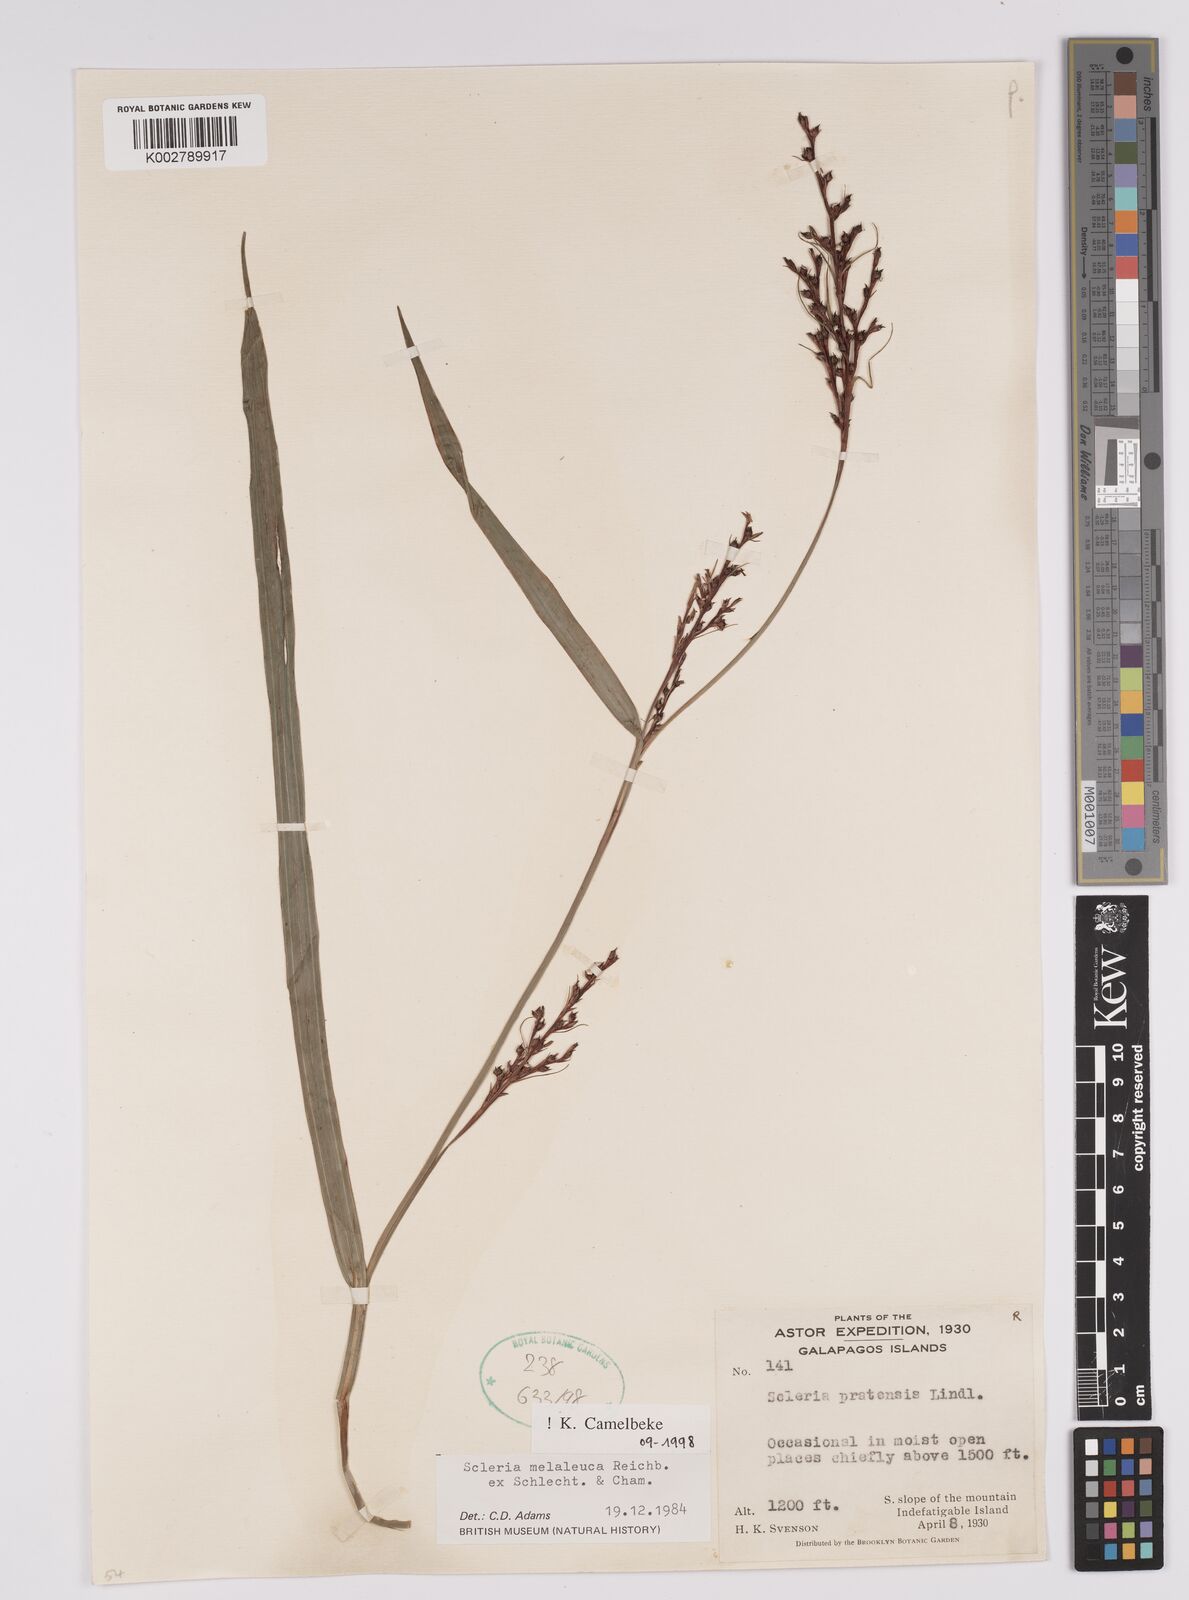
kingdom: Plantae
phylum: Tracheophyta
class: Liliopsida
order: Poales
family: Cyperaceae
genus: Scleria
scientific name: Scleria gaertneri
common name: Cortadera blanca
